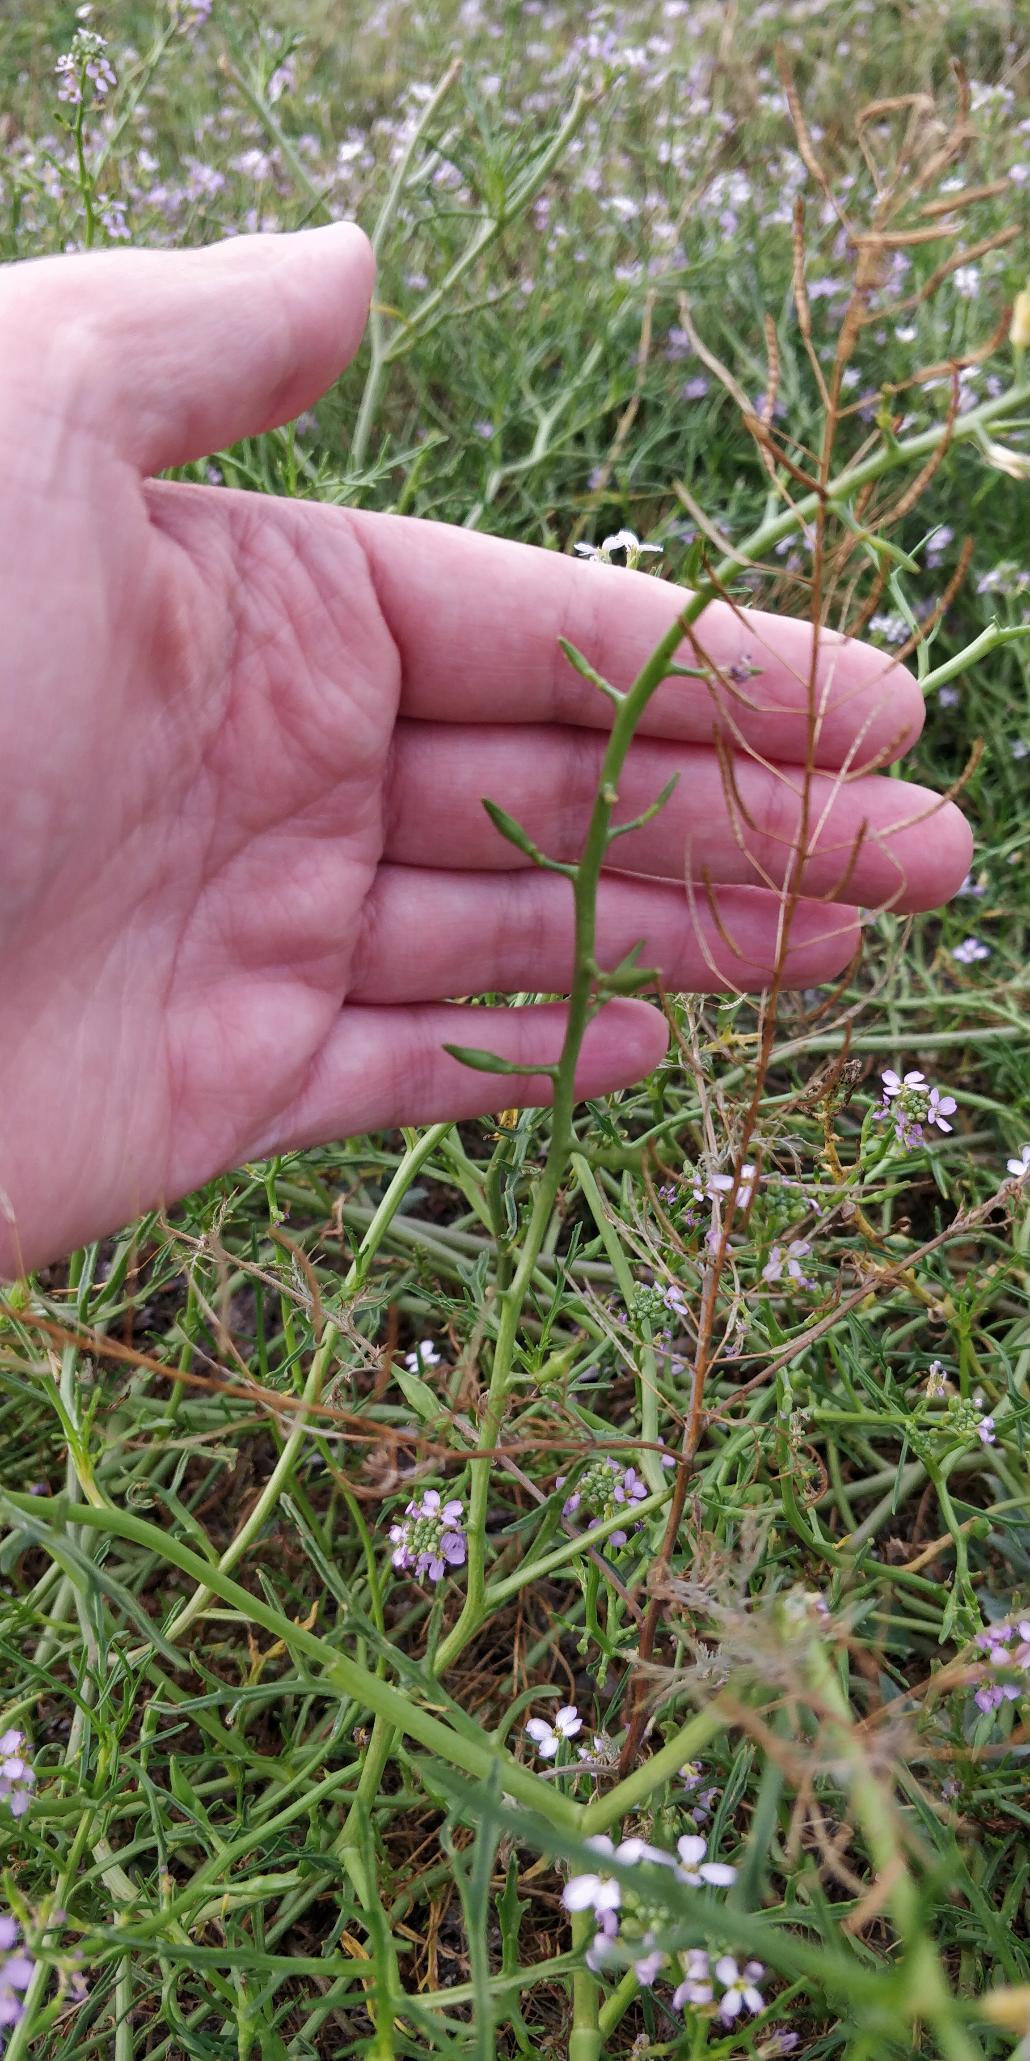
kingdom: Plantae
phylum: Tracheophyta
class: Magnoliopsida
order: Brassicales
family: Brassicaceae
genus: Cakile
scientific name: Cakile maritima
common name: Strandsennep
